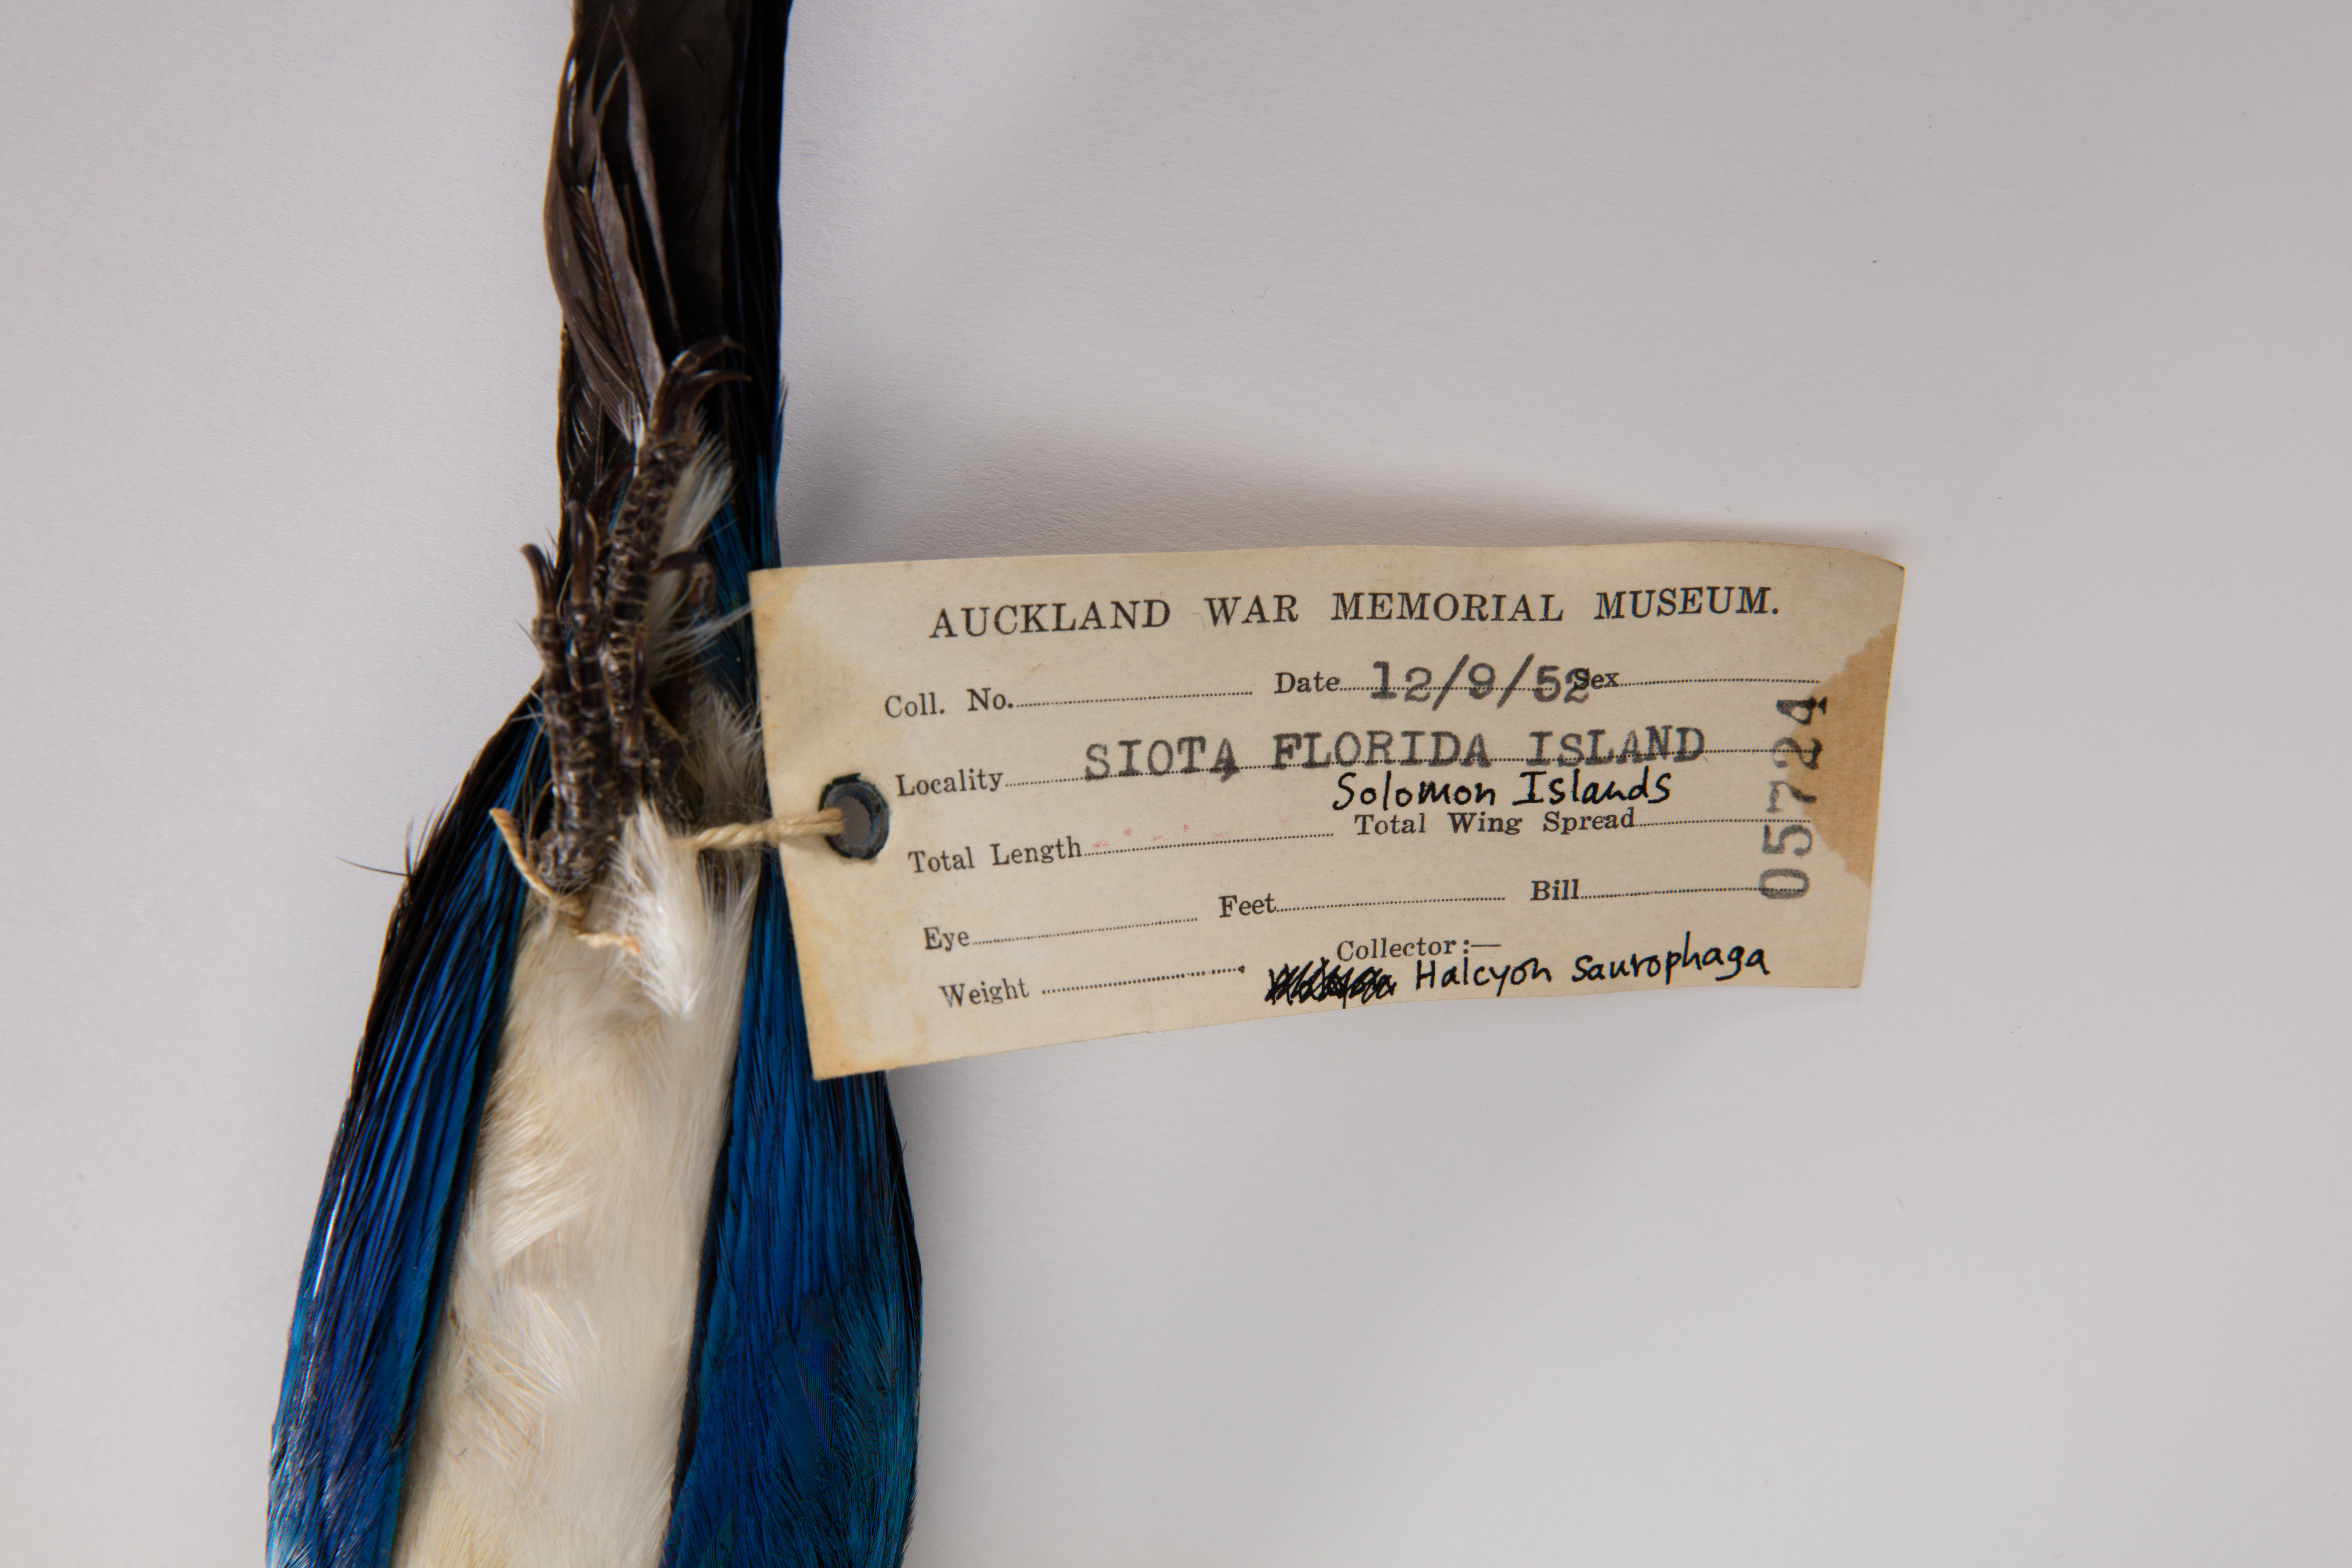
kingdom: Animalia
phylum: Chordata
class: Aves
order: Coraciiformes
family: Alcedinidae
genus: Todiramphus
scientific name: Todiramphus saurophagus
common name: Beach kingfisher
